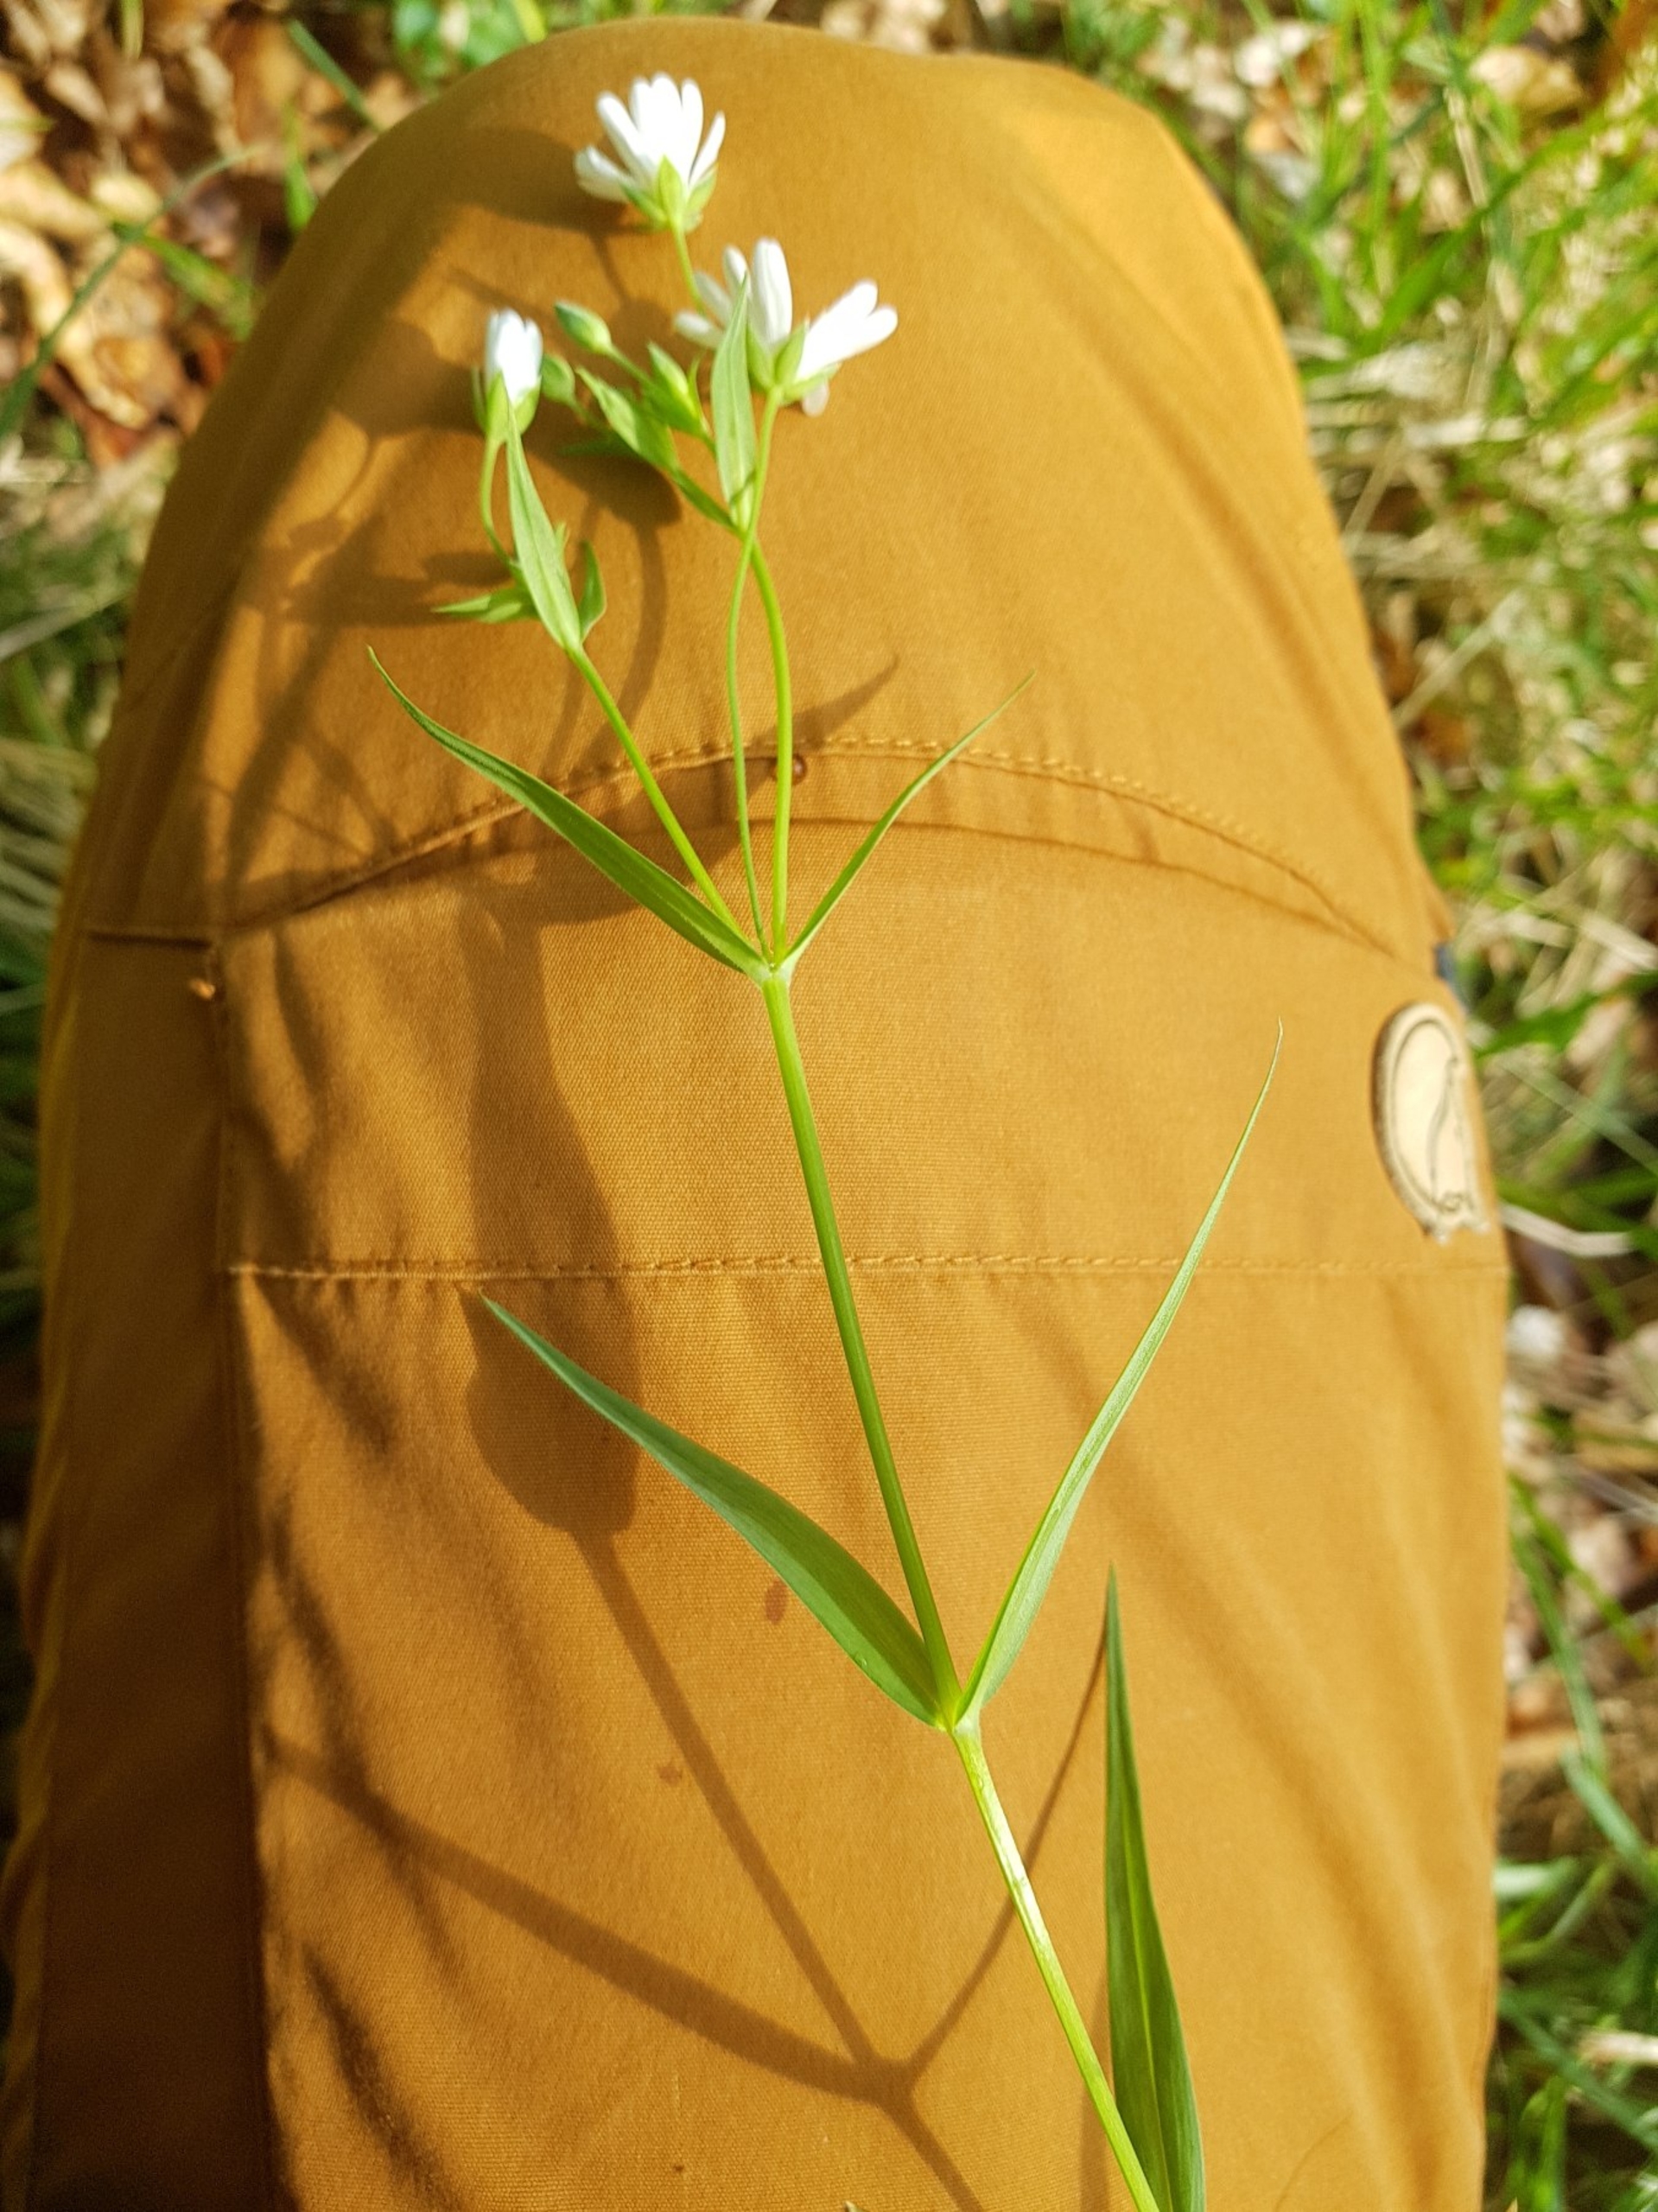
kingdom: Plantae
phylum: Tracheophyta
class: Magnoliopsida
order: Caryophyllales
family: Caryophyllaceae
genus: Rabelera
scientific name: Rabelera holostea
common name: Stor fladstjerne
